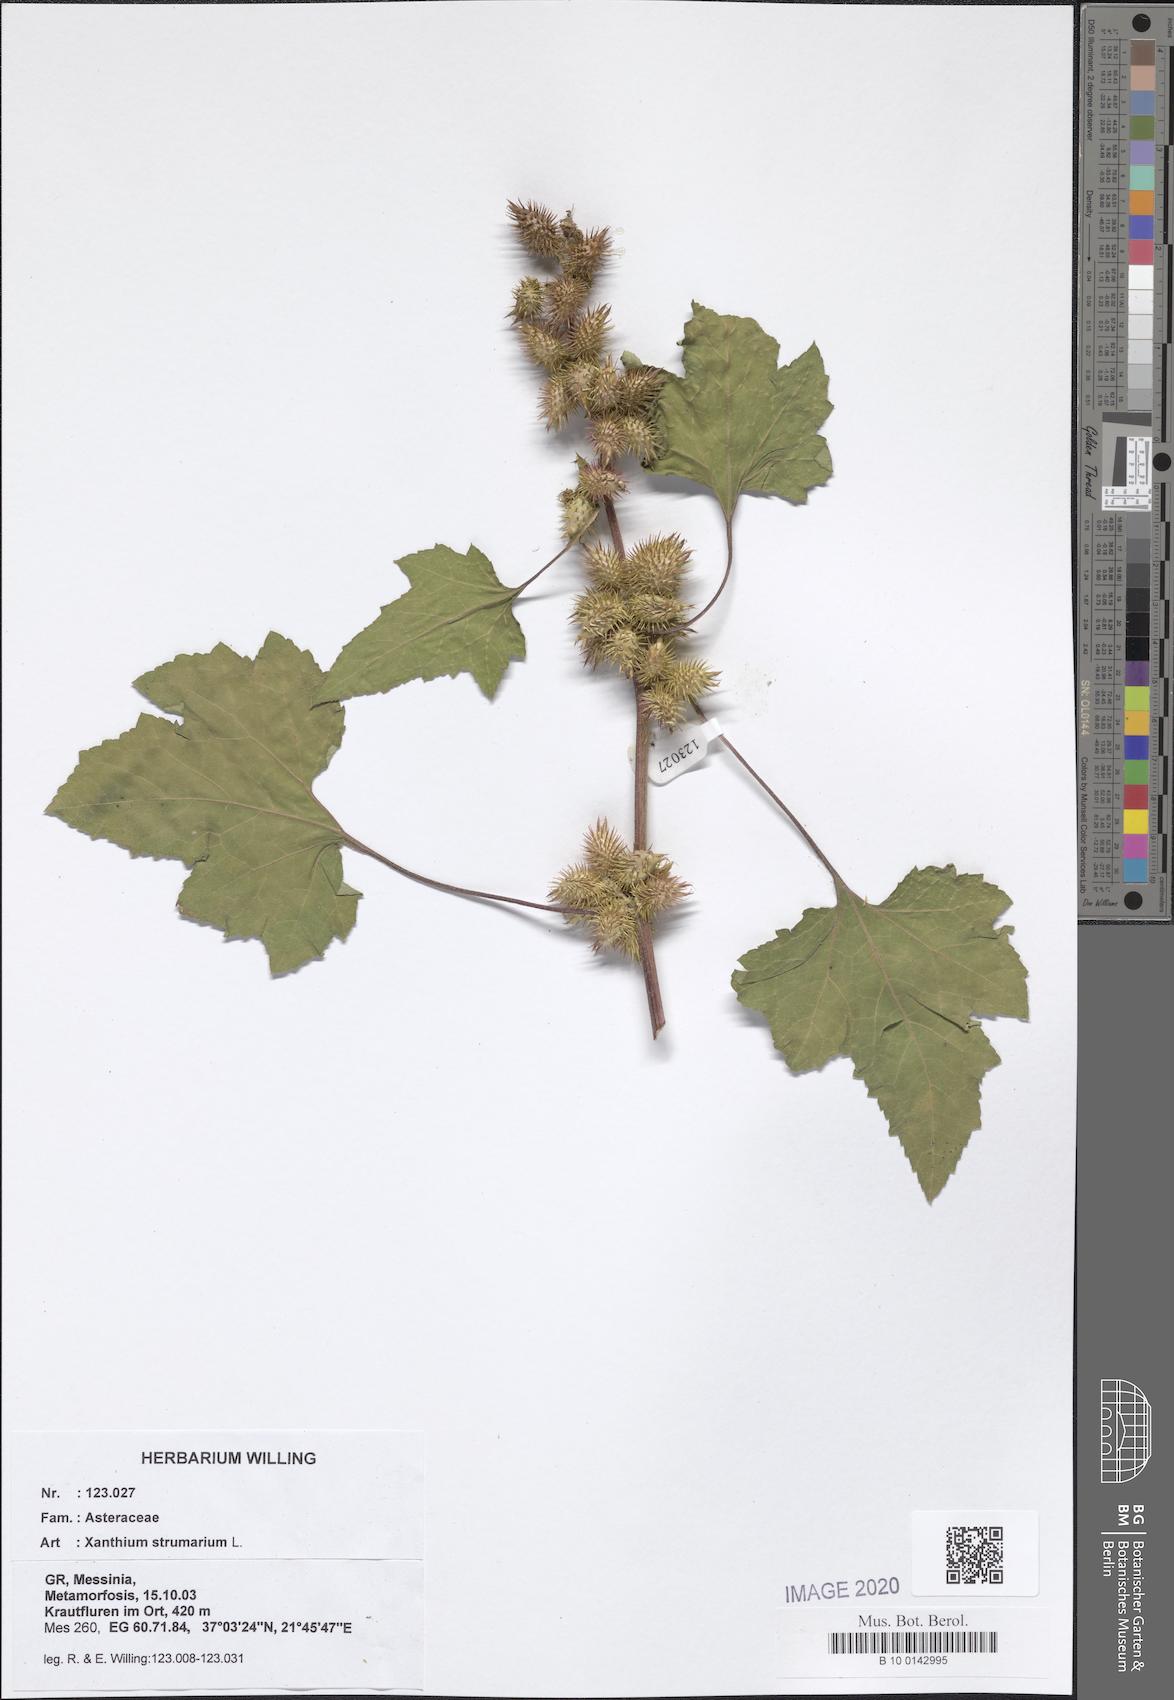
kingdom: Plantae
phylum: Tracheophyta
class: Magnoliopsida
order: Asterales
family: Asteraceae
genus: Xanthium
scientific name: Xanthium strumarium
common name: Rough cocklebur
